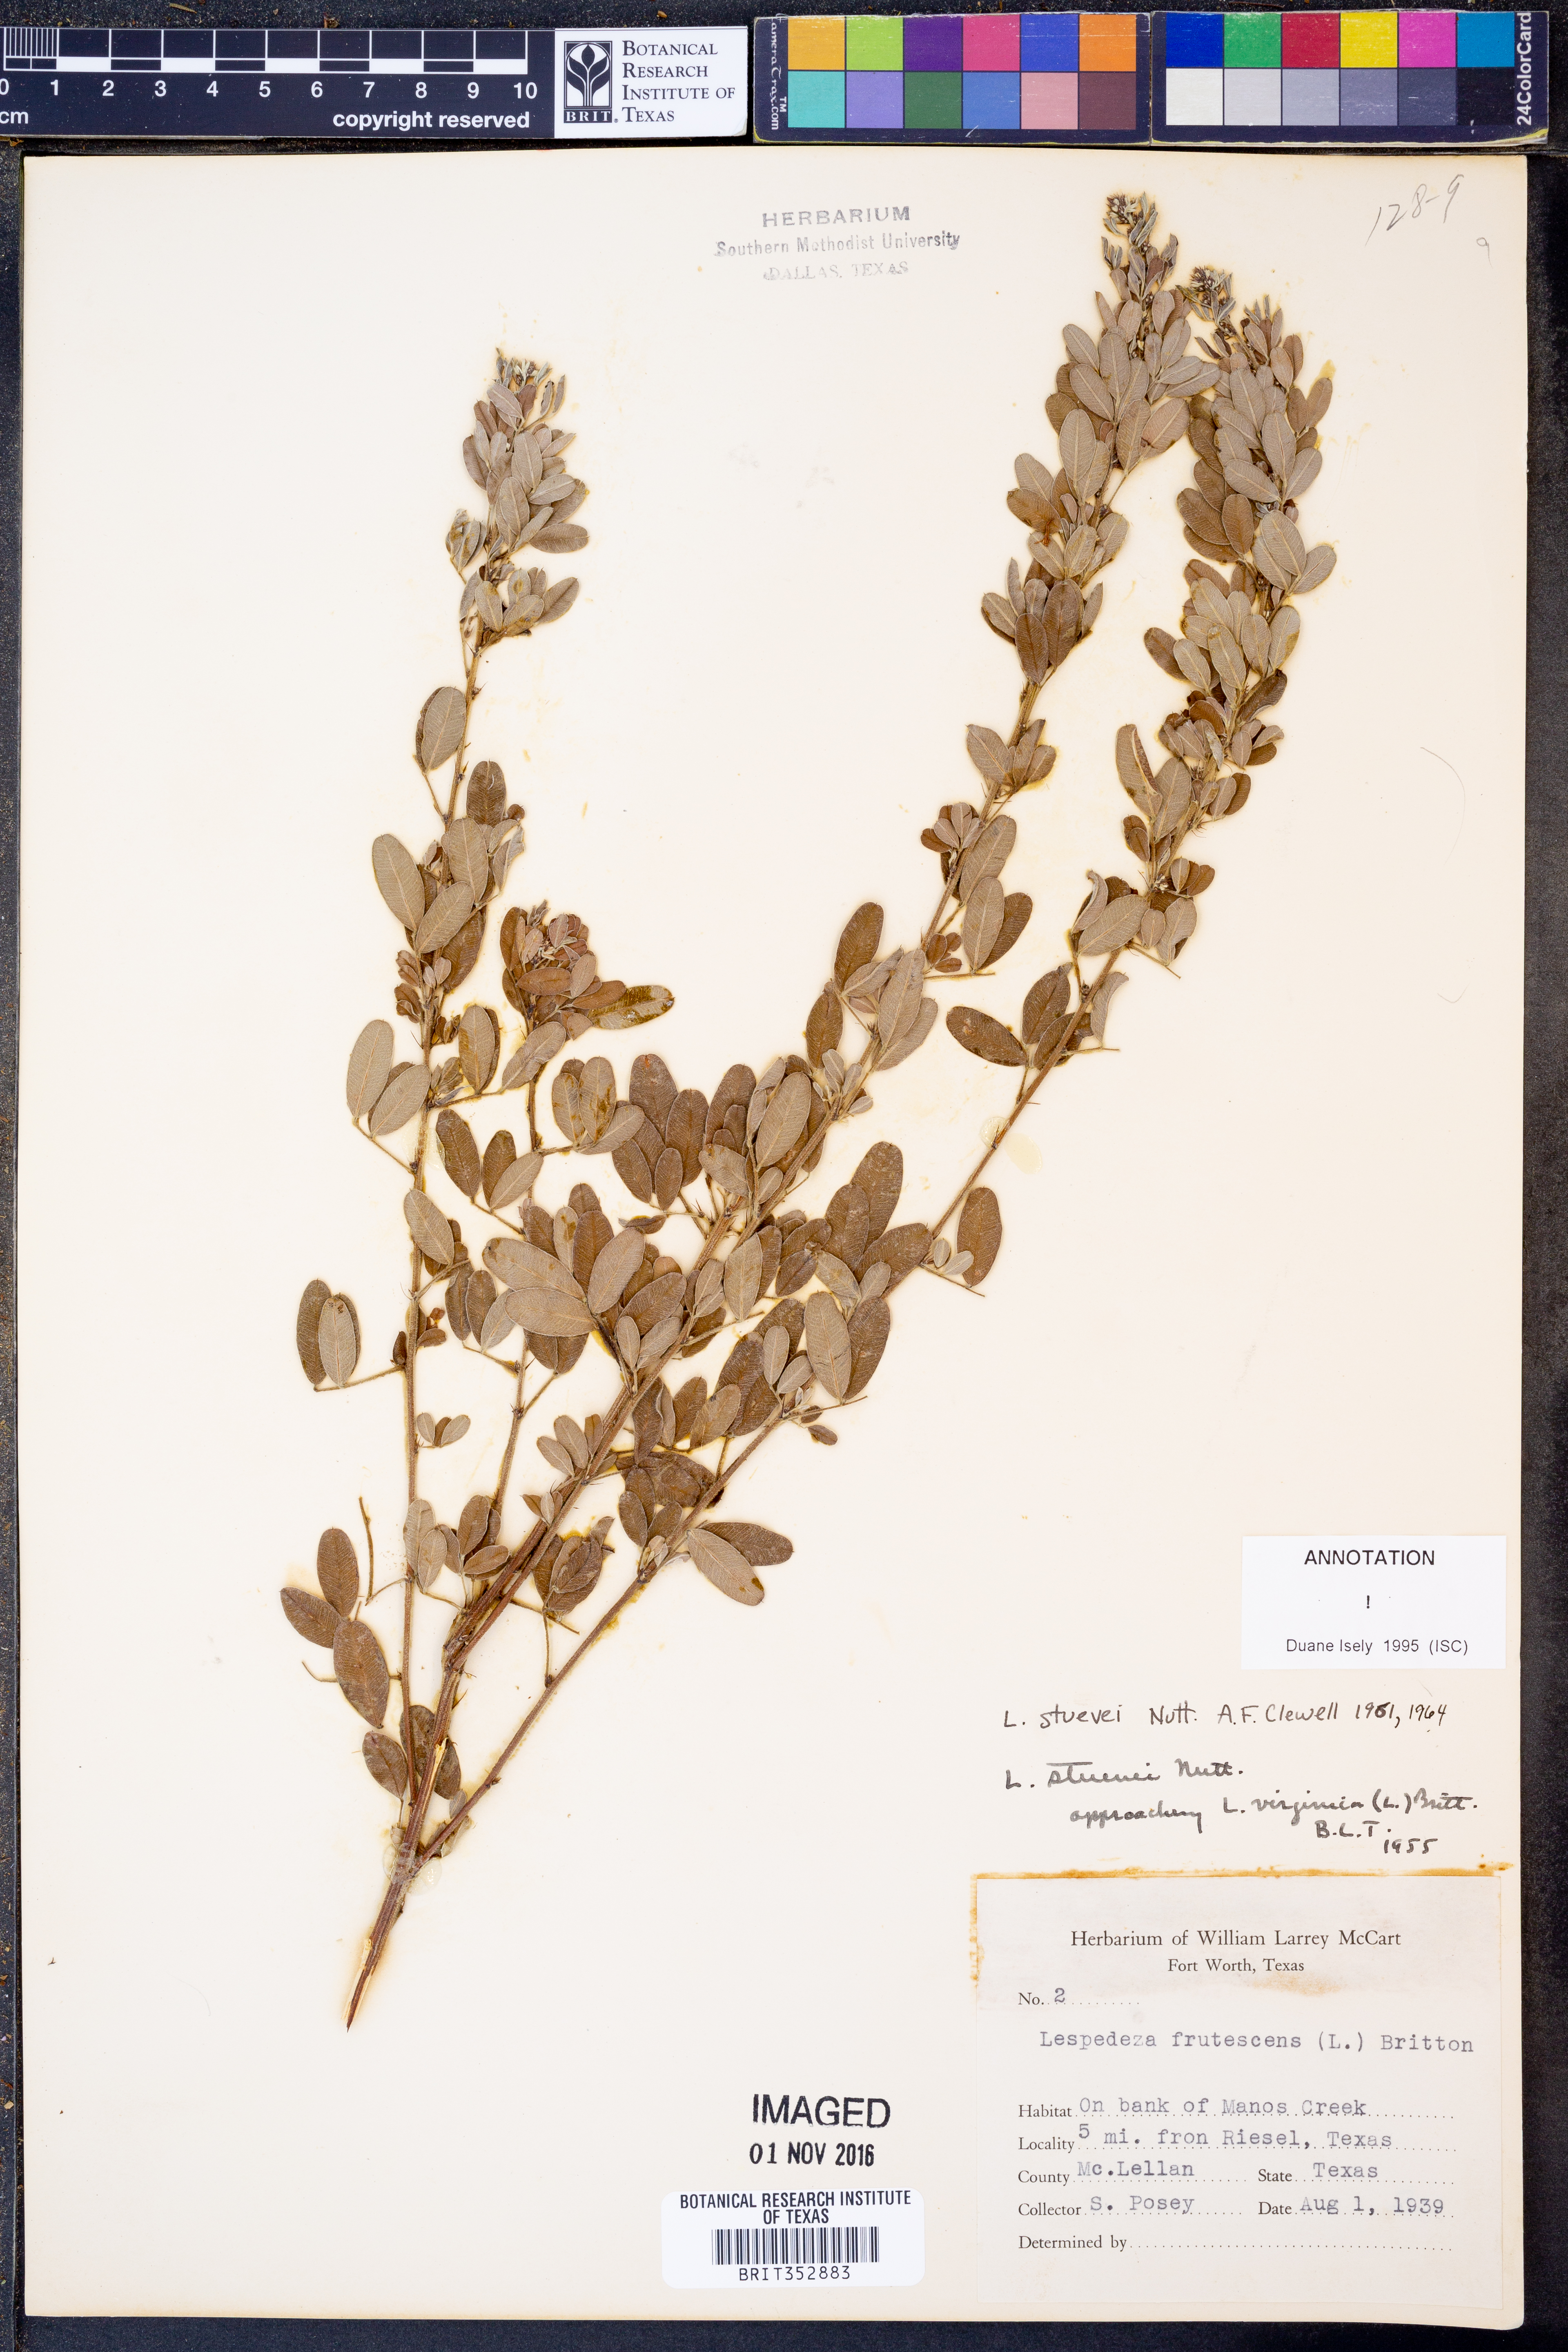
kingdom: Plantae
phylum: Tracheophyta
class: Magnoliopsida
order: Fabales
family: Fabaceae
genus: Lespedeza
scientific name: Lespedeza stuevei
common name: Tall bush-clover
